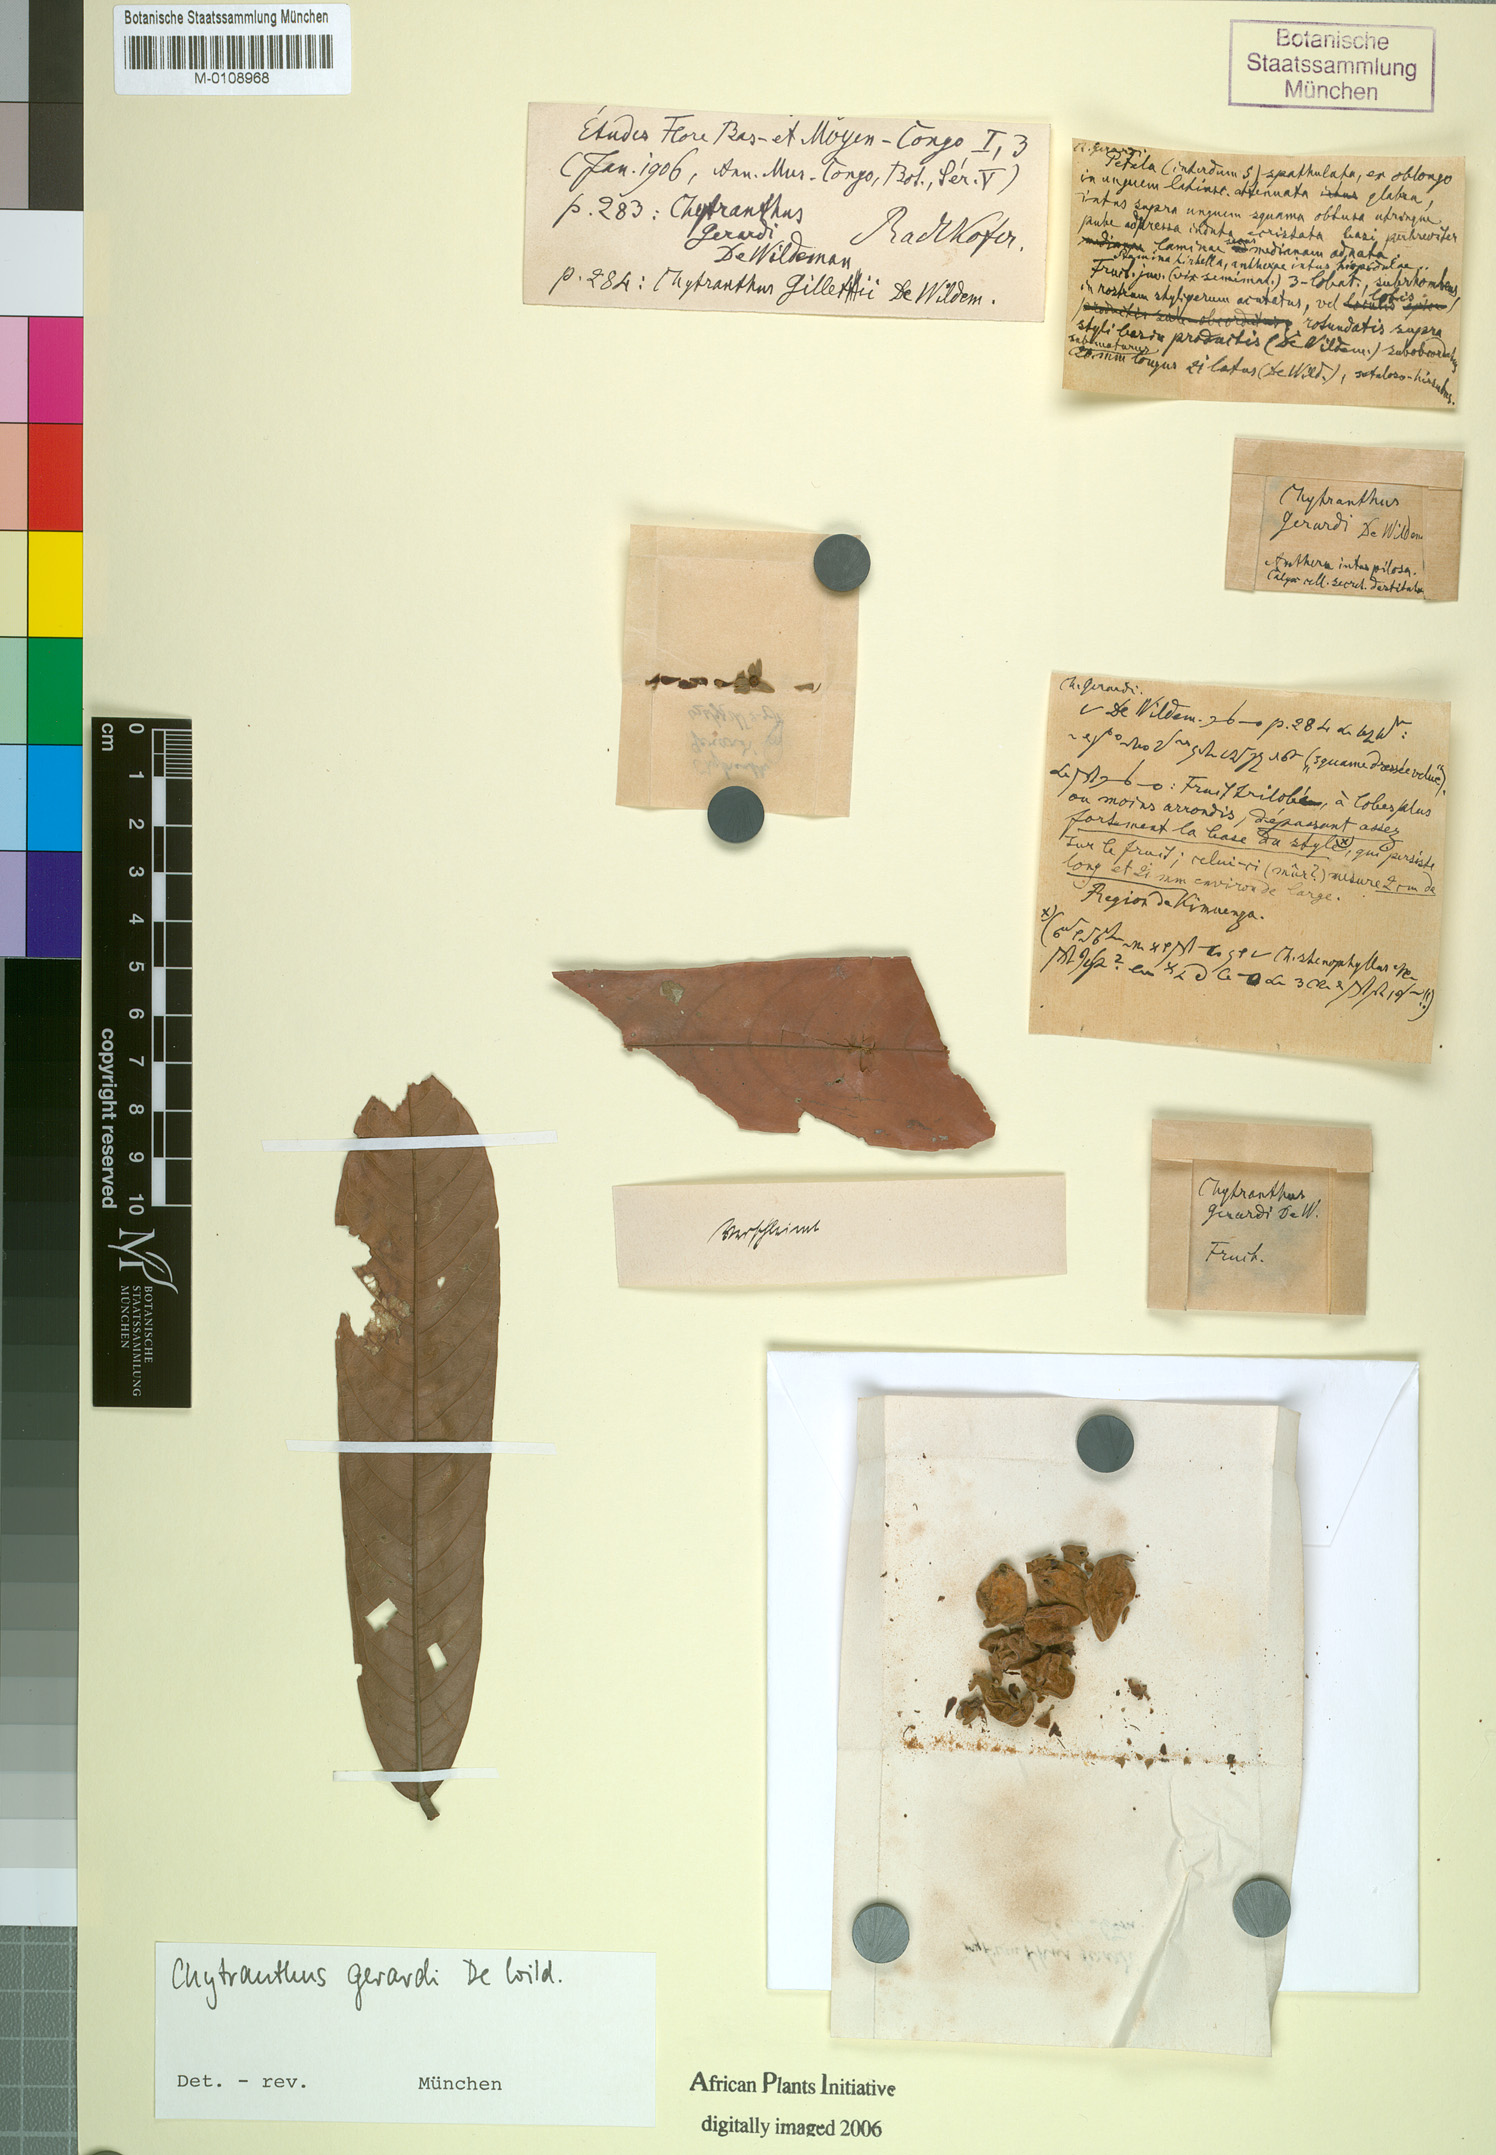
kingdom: Plantae
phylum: Tracheophyta
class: Magnoliopsida
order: Sapindales
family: Sapindaceae
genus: Chytranthus
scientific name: Chytranthus stenophyllus
